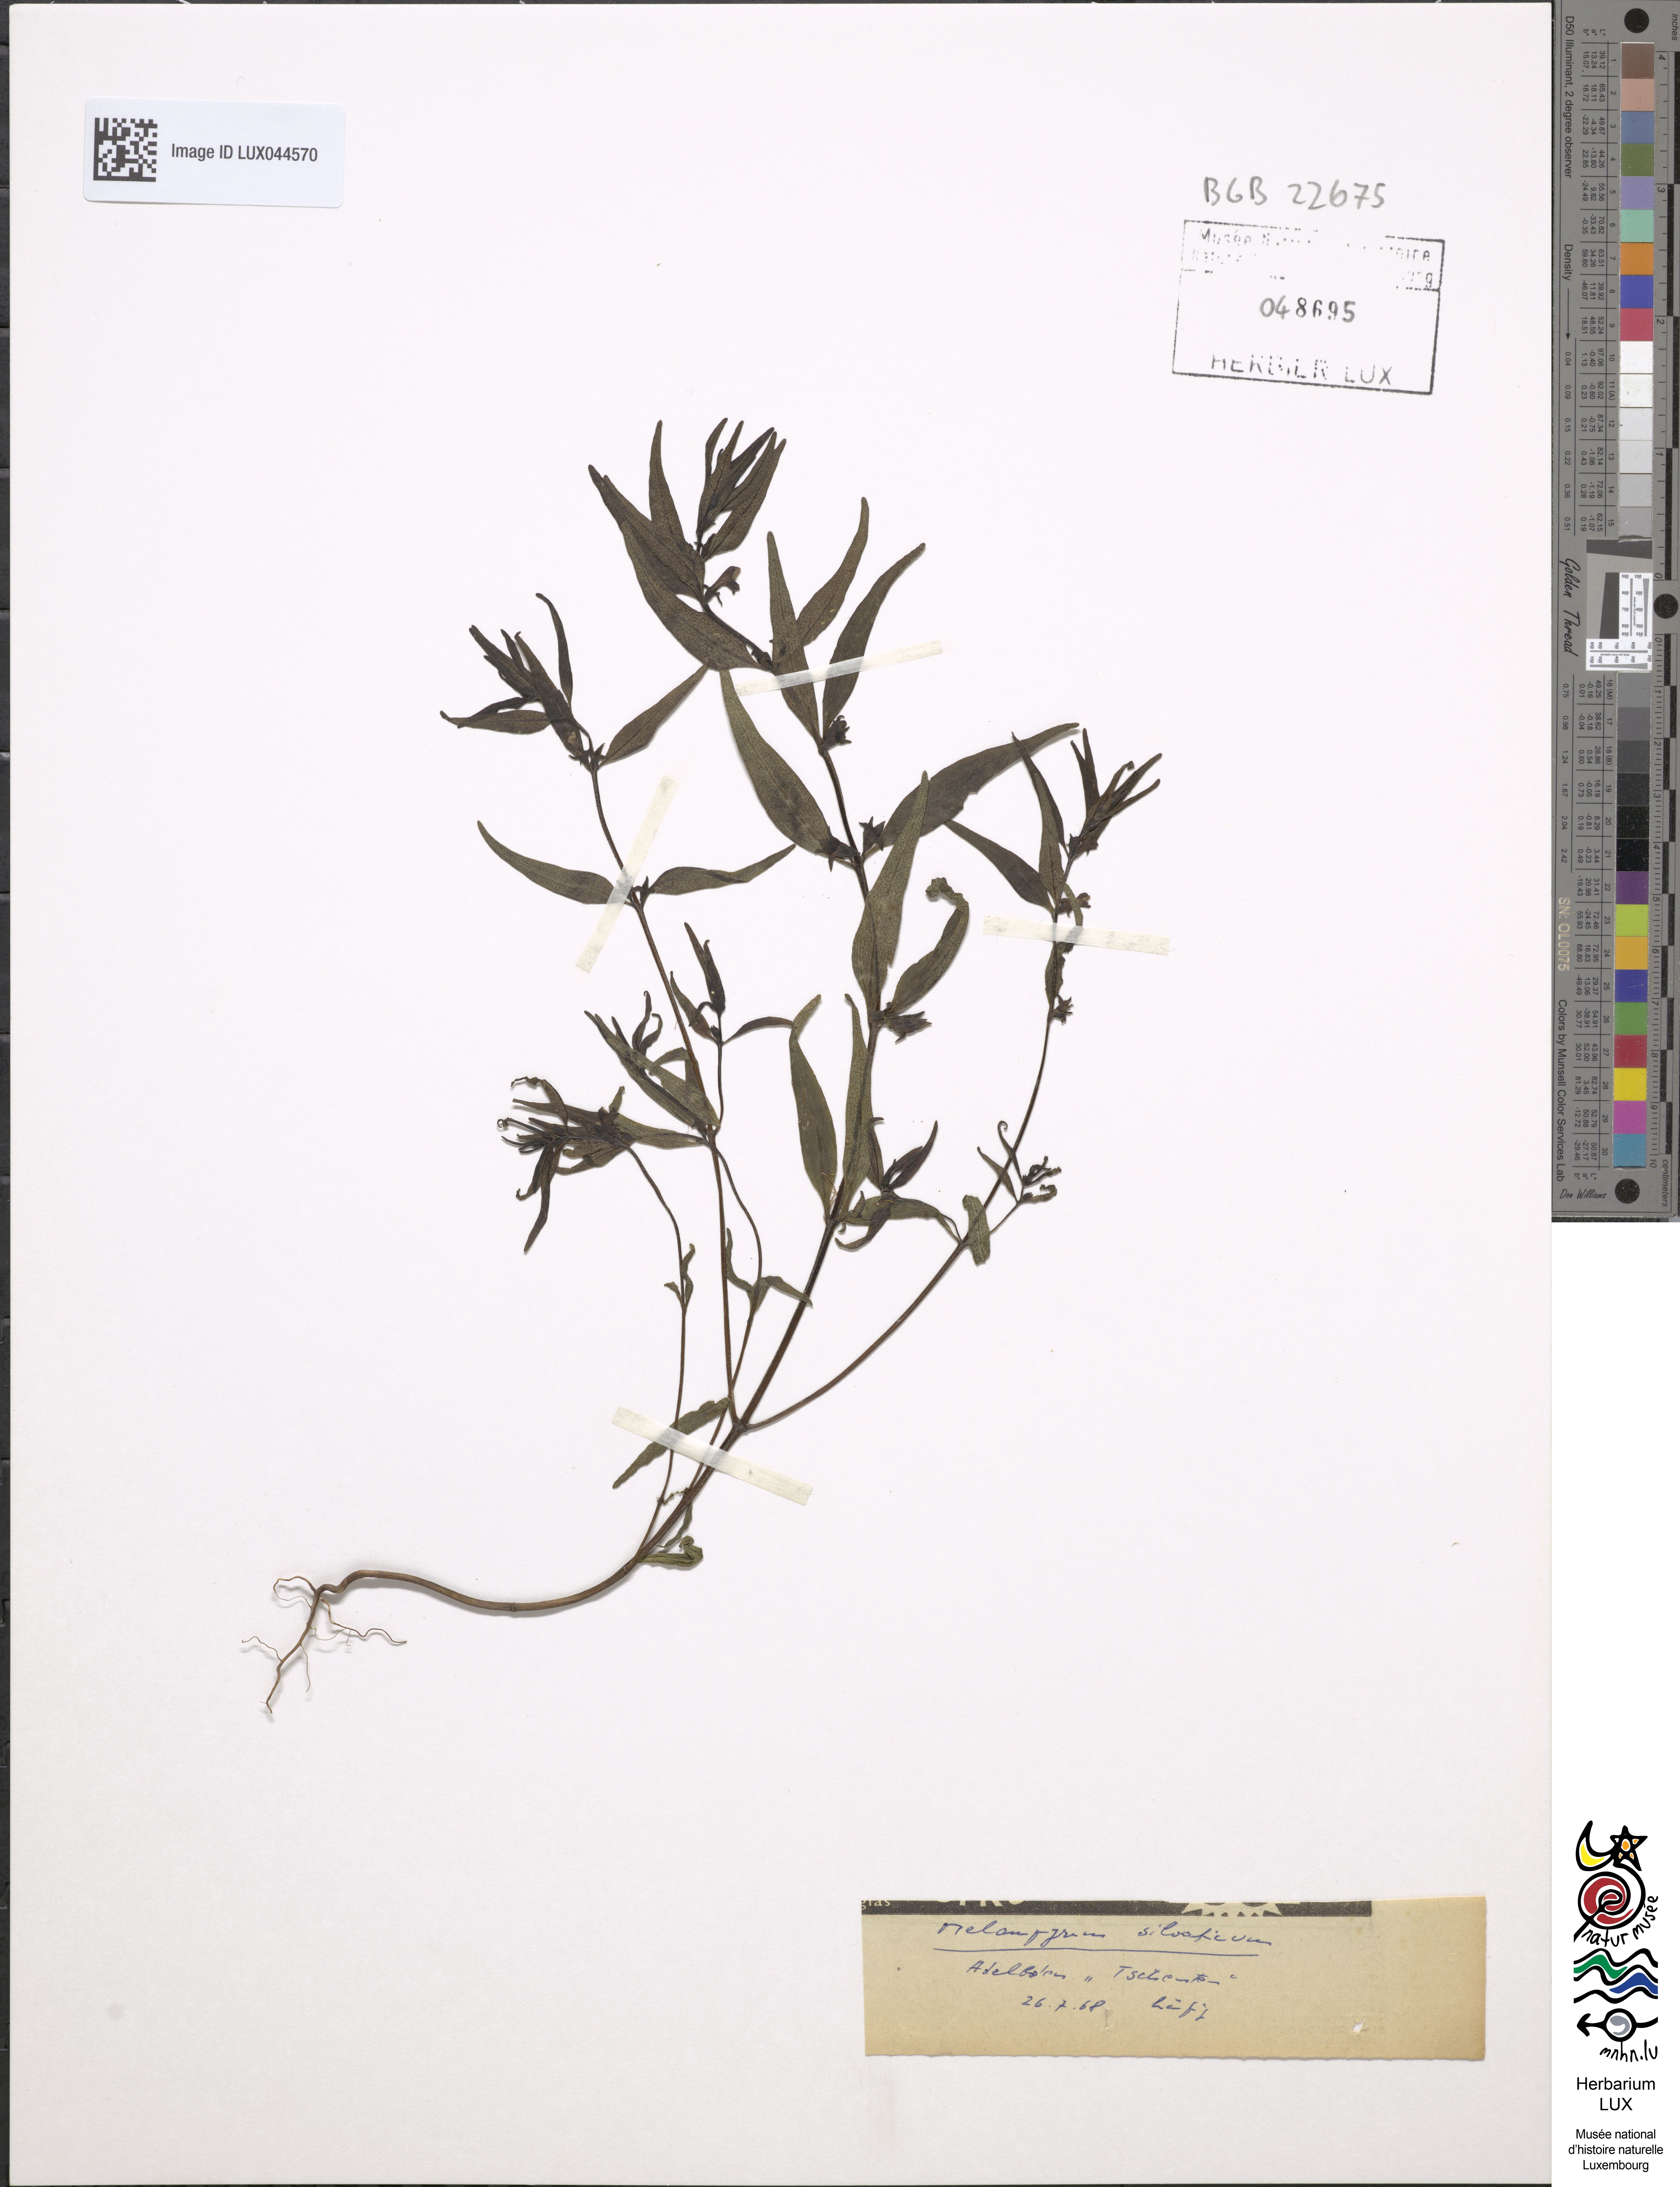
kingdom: Plantae
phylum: Tracheophyta
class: Magnoliopsida
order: Lamiales
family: Orobanchaceae
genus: Melampyrum
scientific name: Melampyrum sylvaticum
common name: Small cow-wheat
